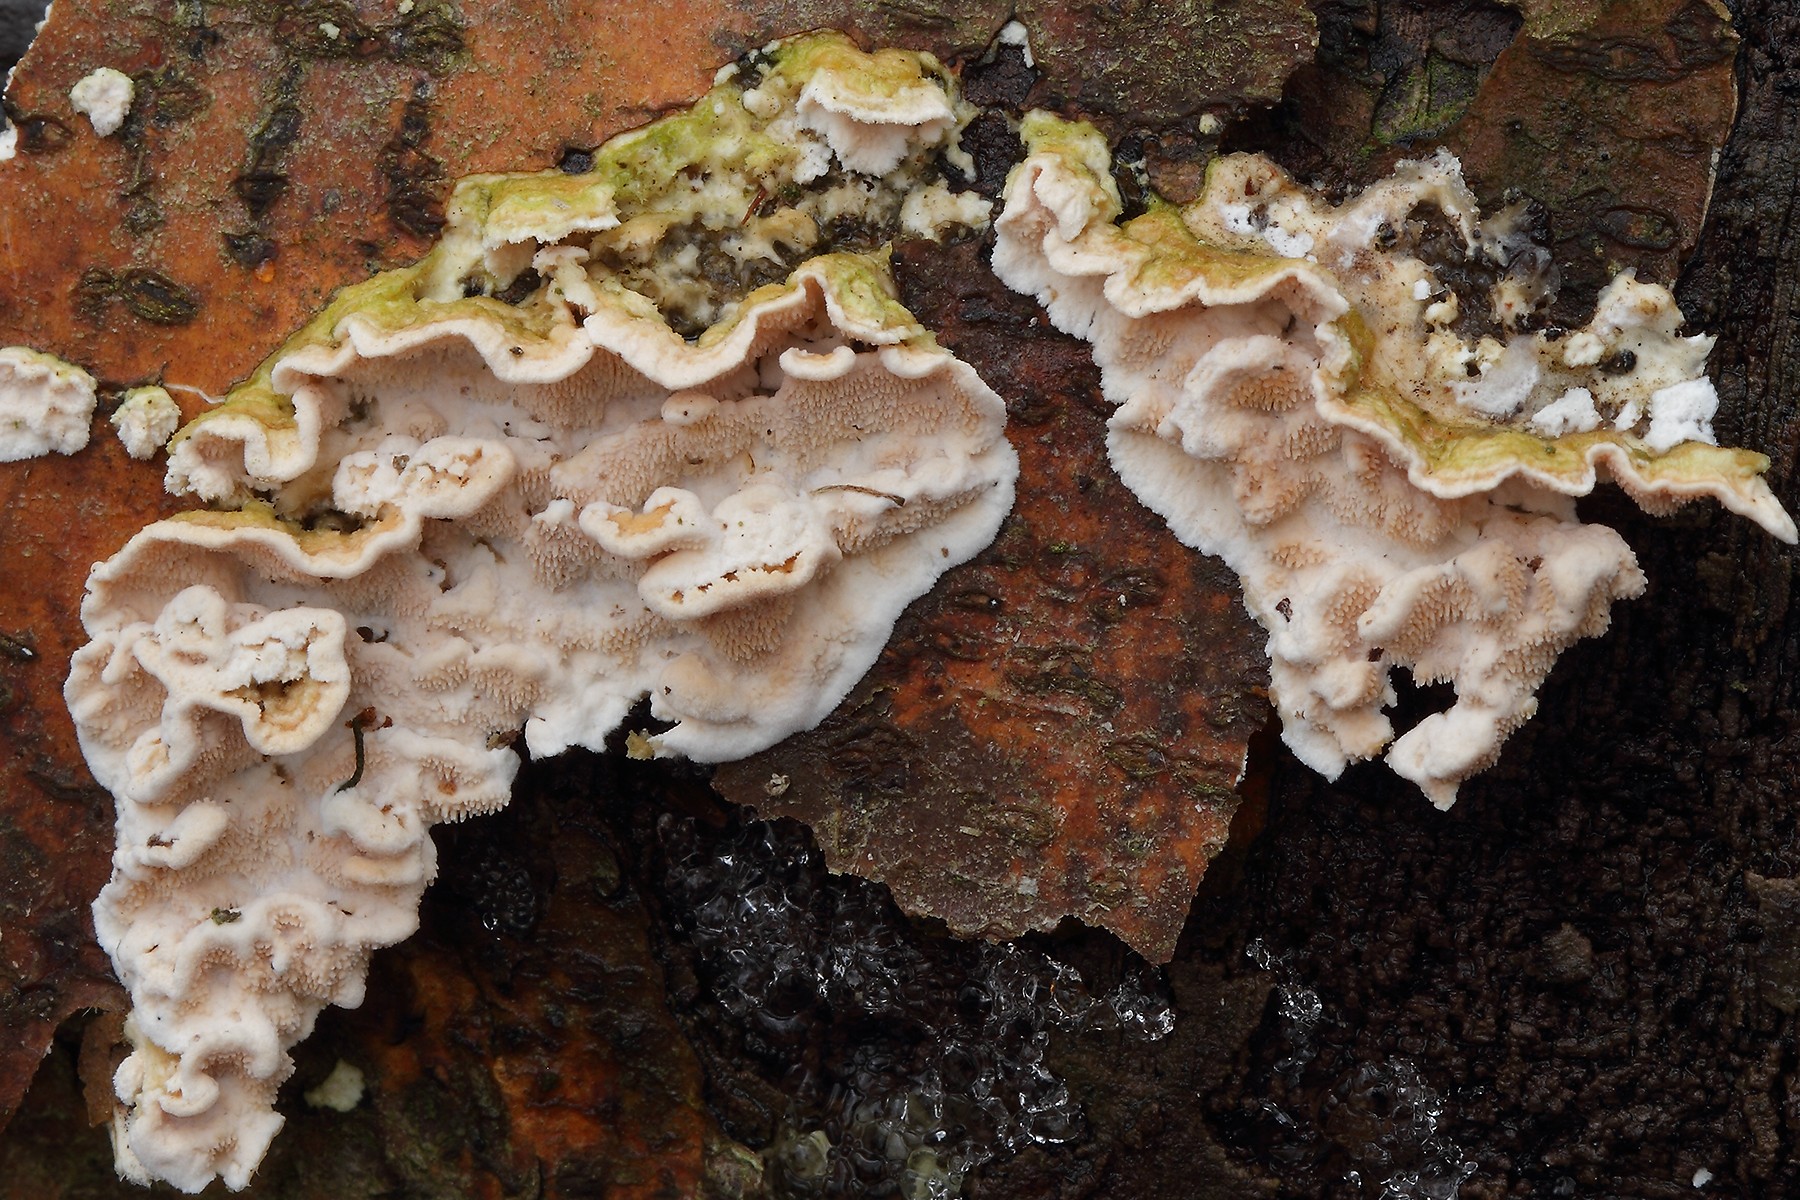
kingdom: Fungi
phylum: Basidiomycota
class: Agaricomycetes
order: Polyporales
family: Steccherinaceae
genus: Steccherinum
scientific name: Steccherinum ochraceum
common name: almindelig skønpig
